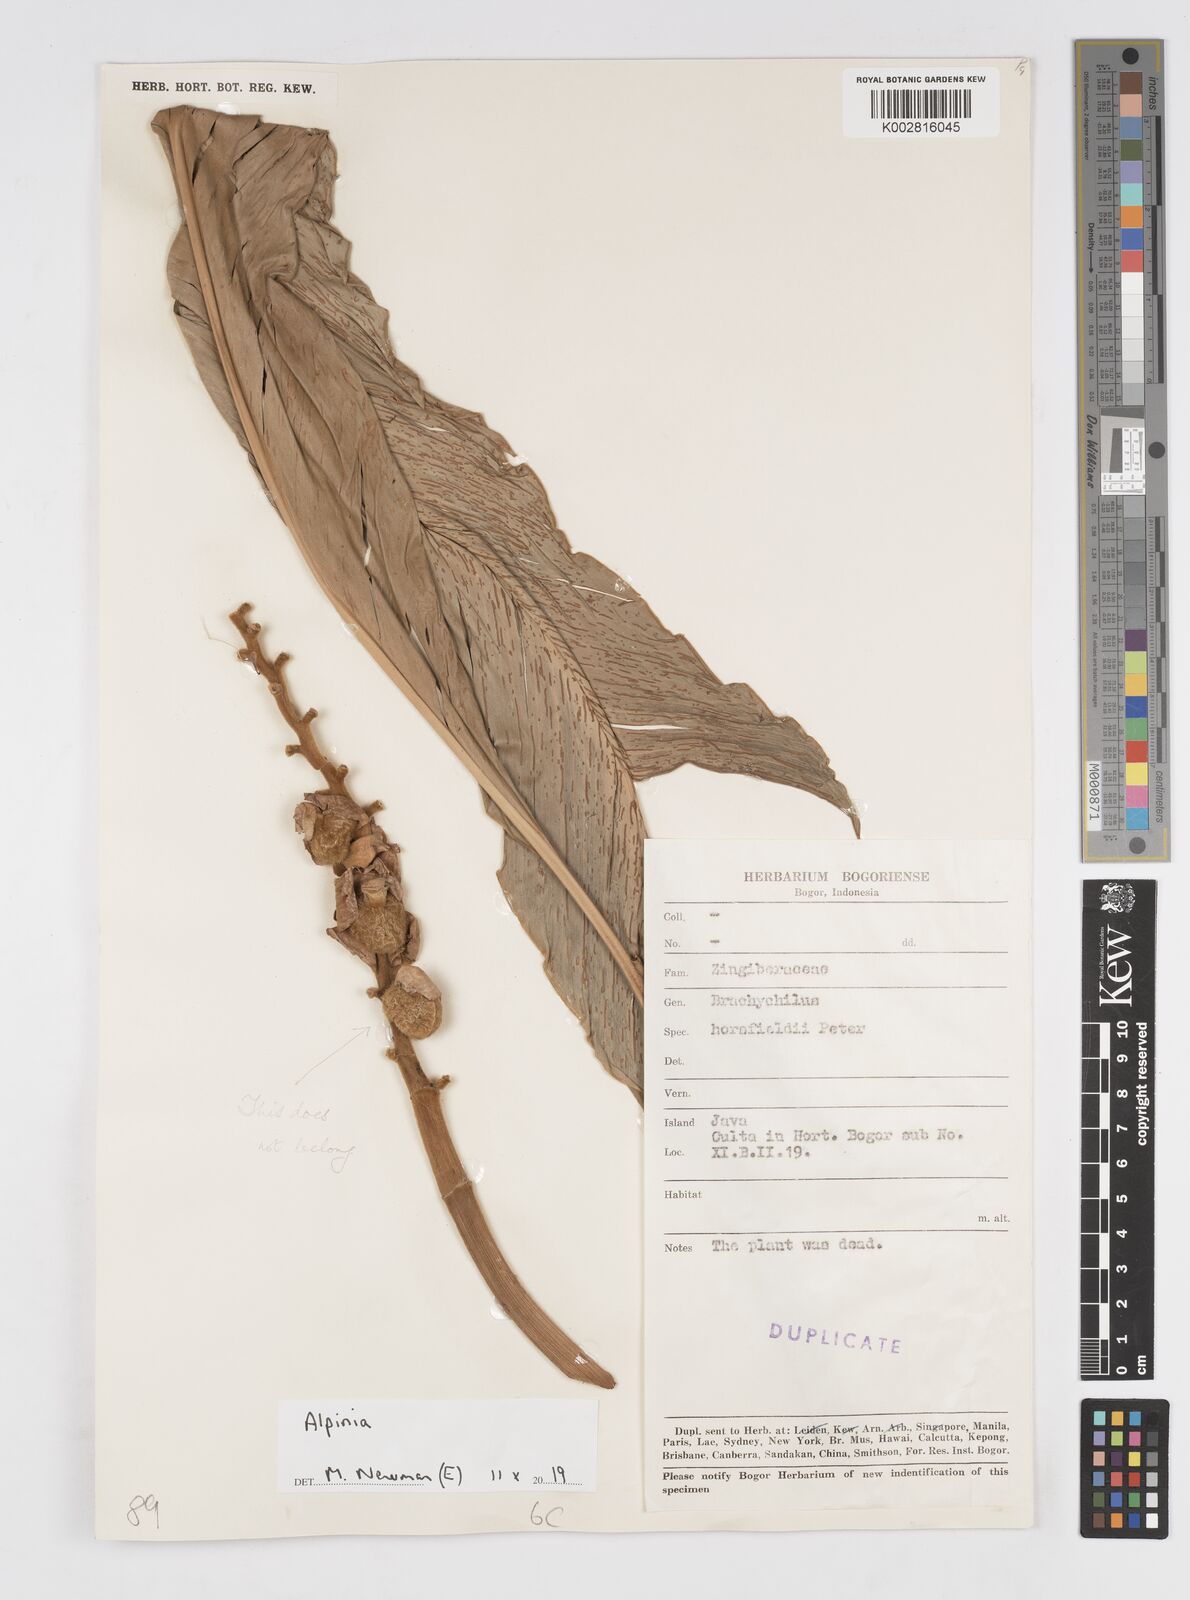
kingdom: Plantae
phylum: Tracheophyta
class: Liliopsida
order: Zingiberales
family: Zingiberaceae
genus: Alpinia
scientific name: Alpinia
